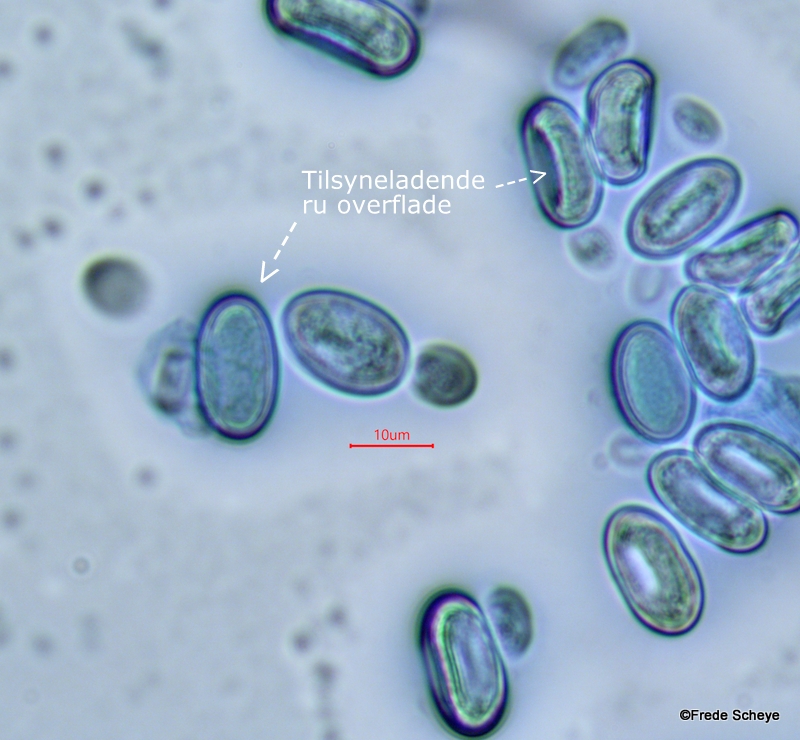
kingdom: Fungi
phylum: Ascomycota
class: Pezizomycetes
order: Pezizales
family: Pezizaceae
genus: Peziza
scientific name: Peziza varia
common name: Ved-bægersvamp
